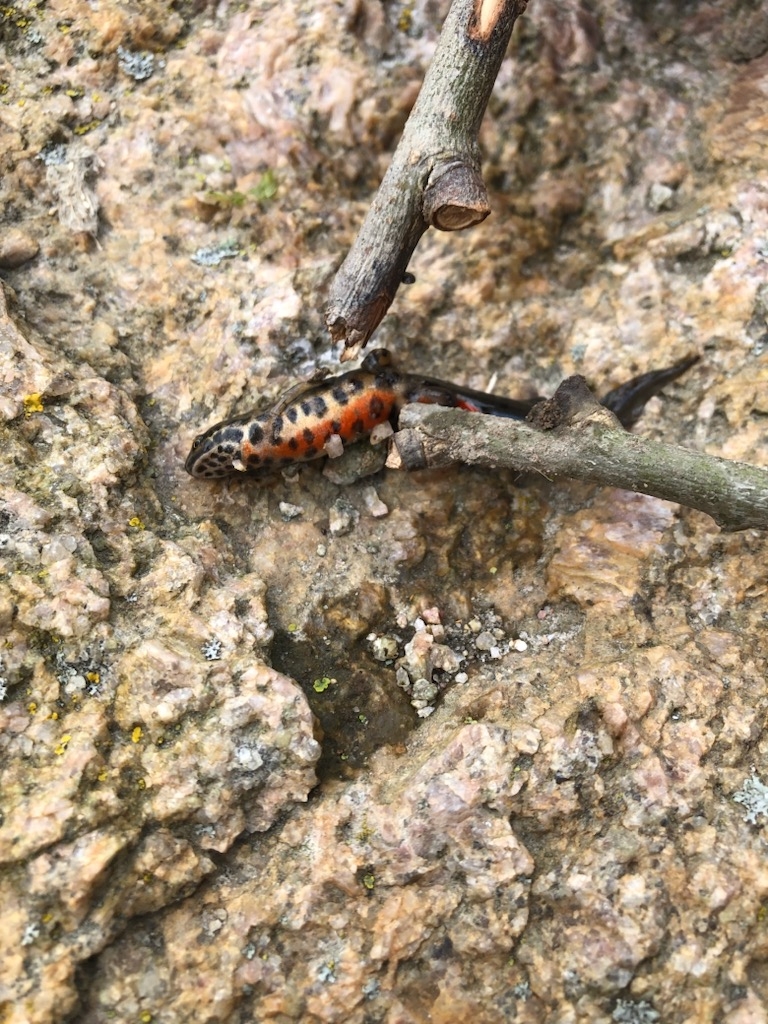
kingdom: Animalia
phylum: Chordata
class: Amphibia
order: Caudata
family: Salamandridae
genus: Lissotriton
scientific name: Lissotriton vulgaris
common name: Lille vandsalamander
